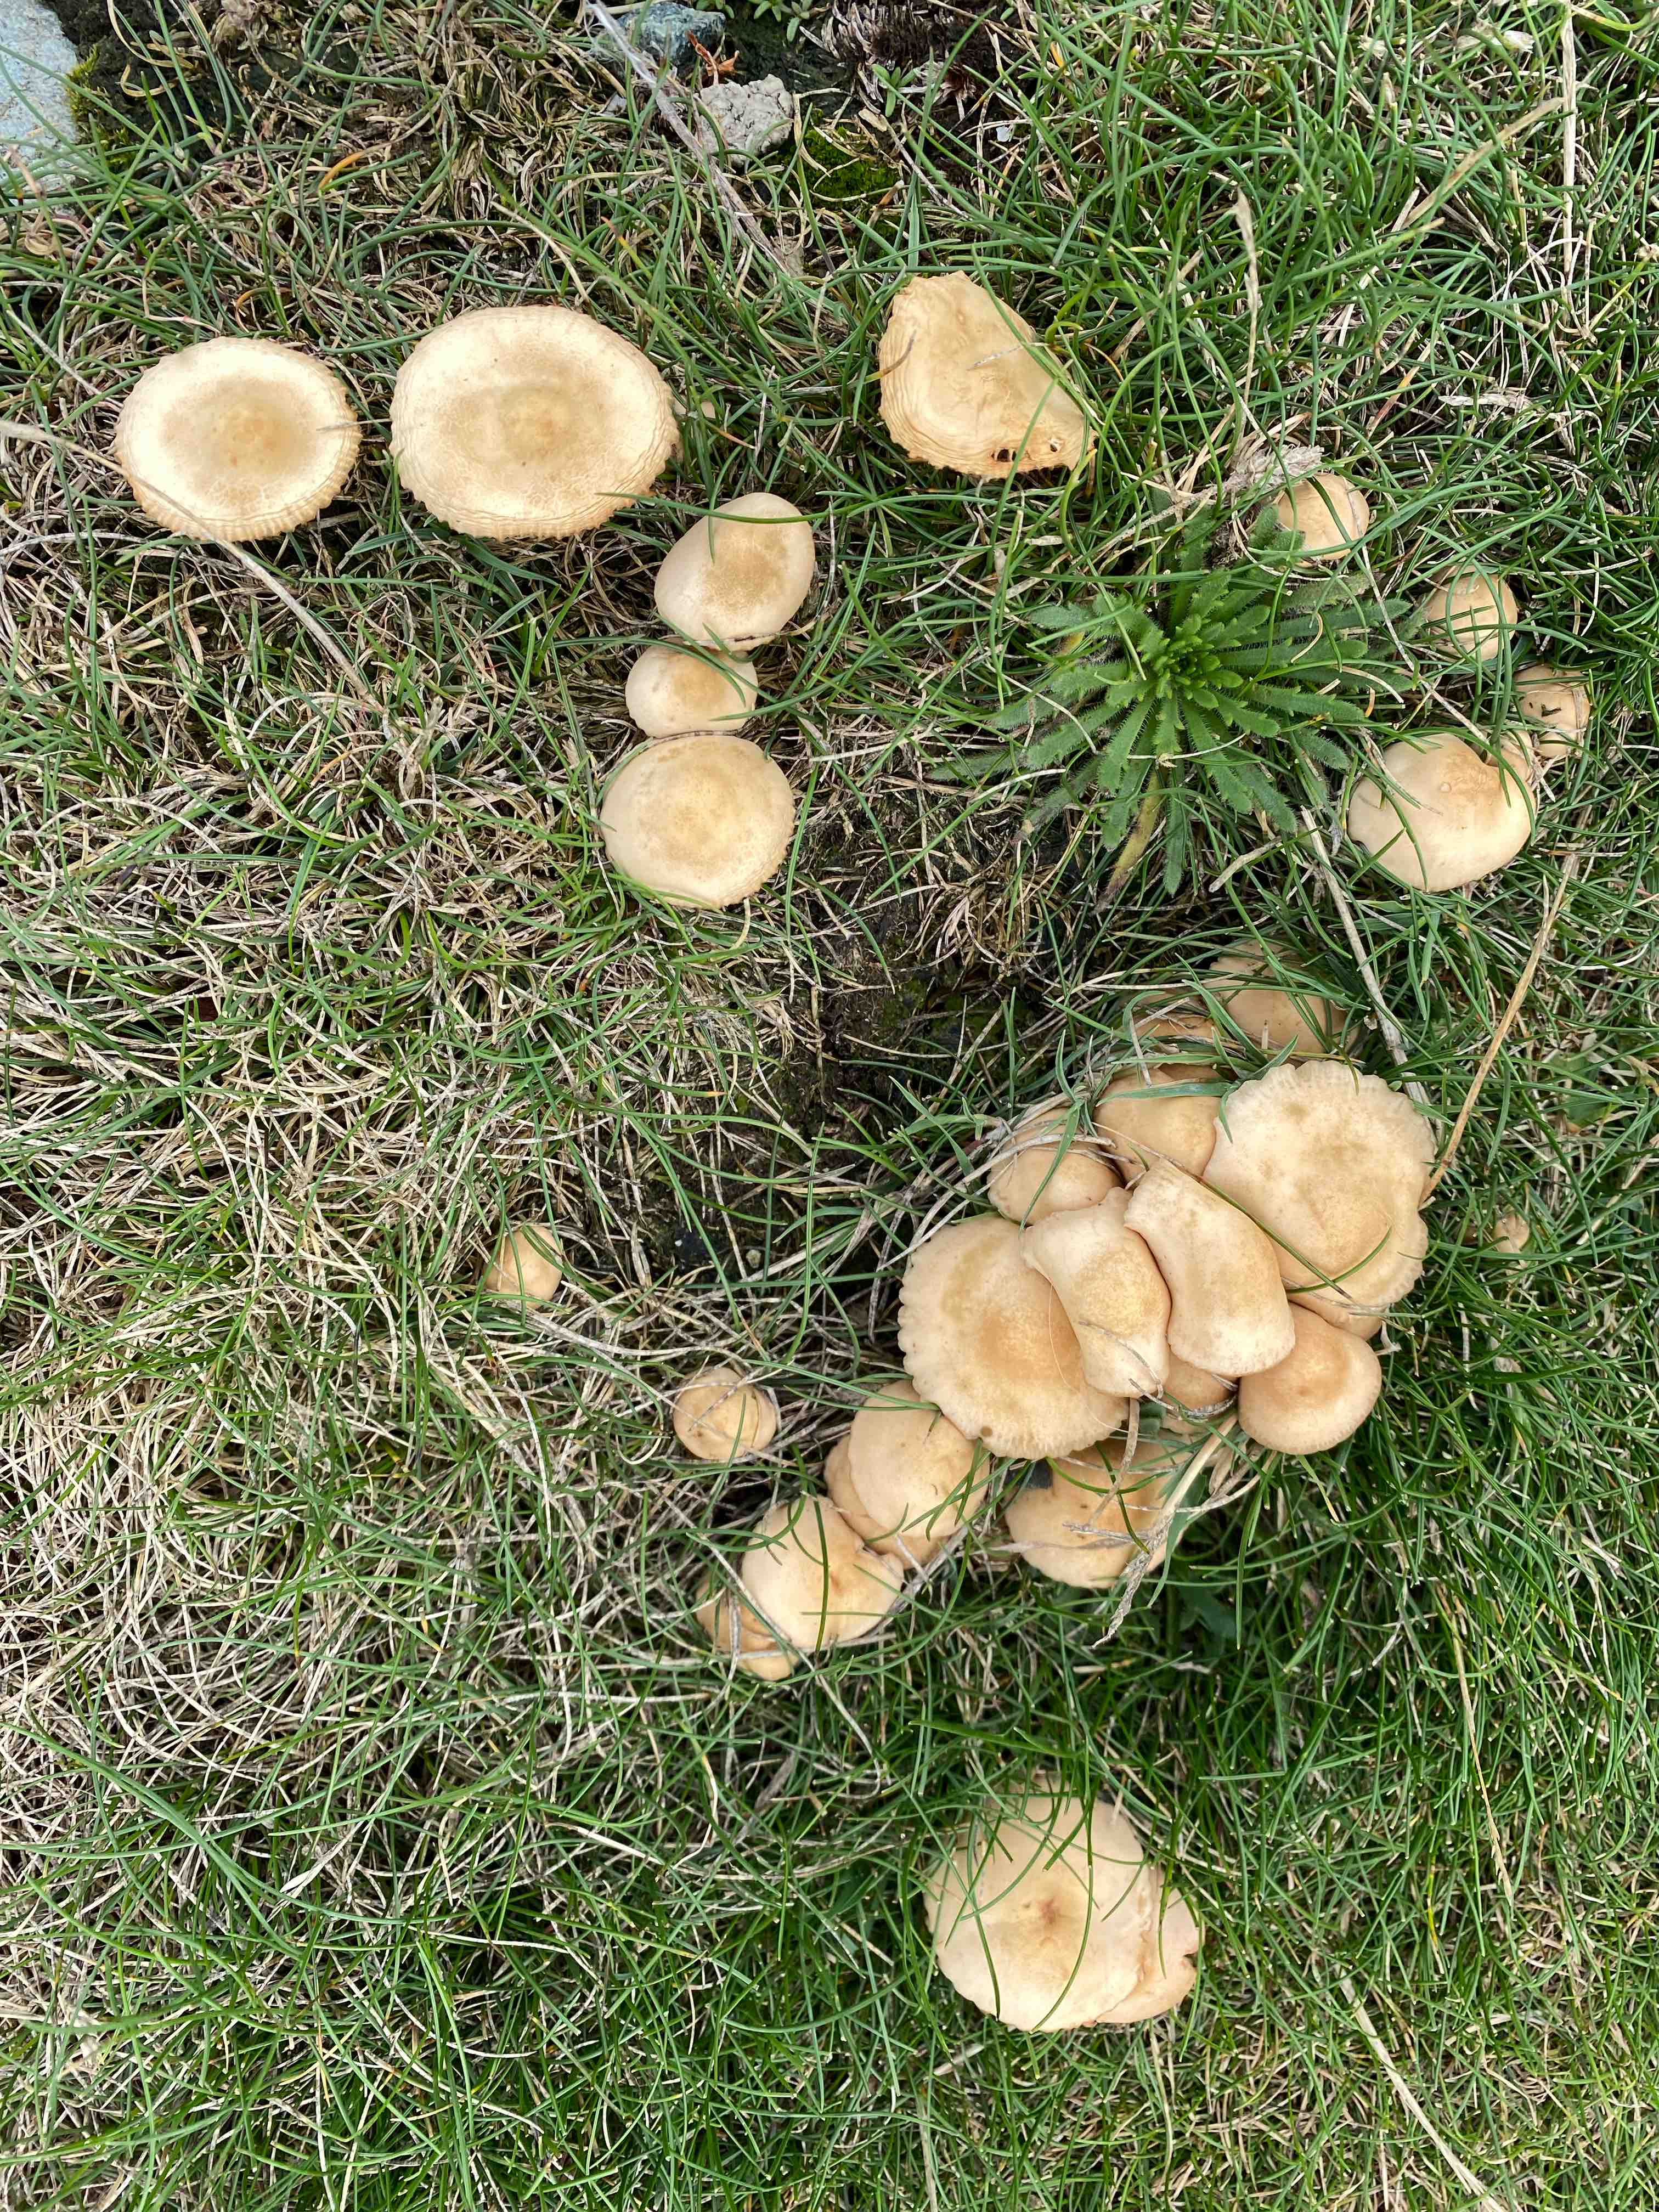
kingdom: Fungi
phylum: Basidiomycota
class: Agaricomycetes
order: Agaricales
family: Marasmiaceae
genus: Marasmius
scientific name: Marasmius oreades
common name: elledans-bruskhat
